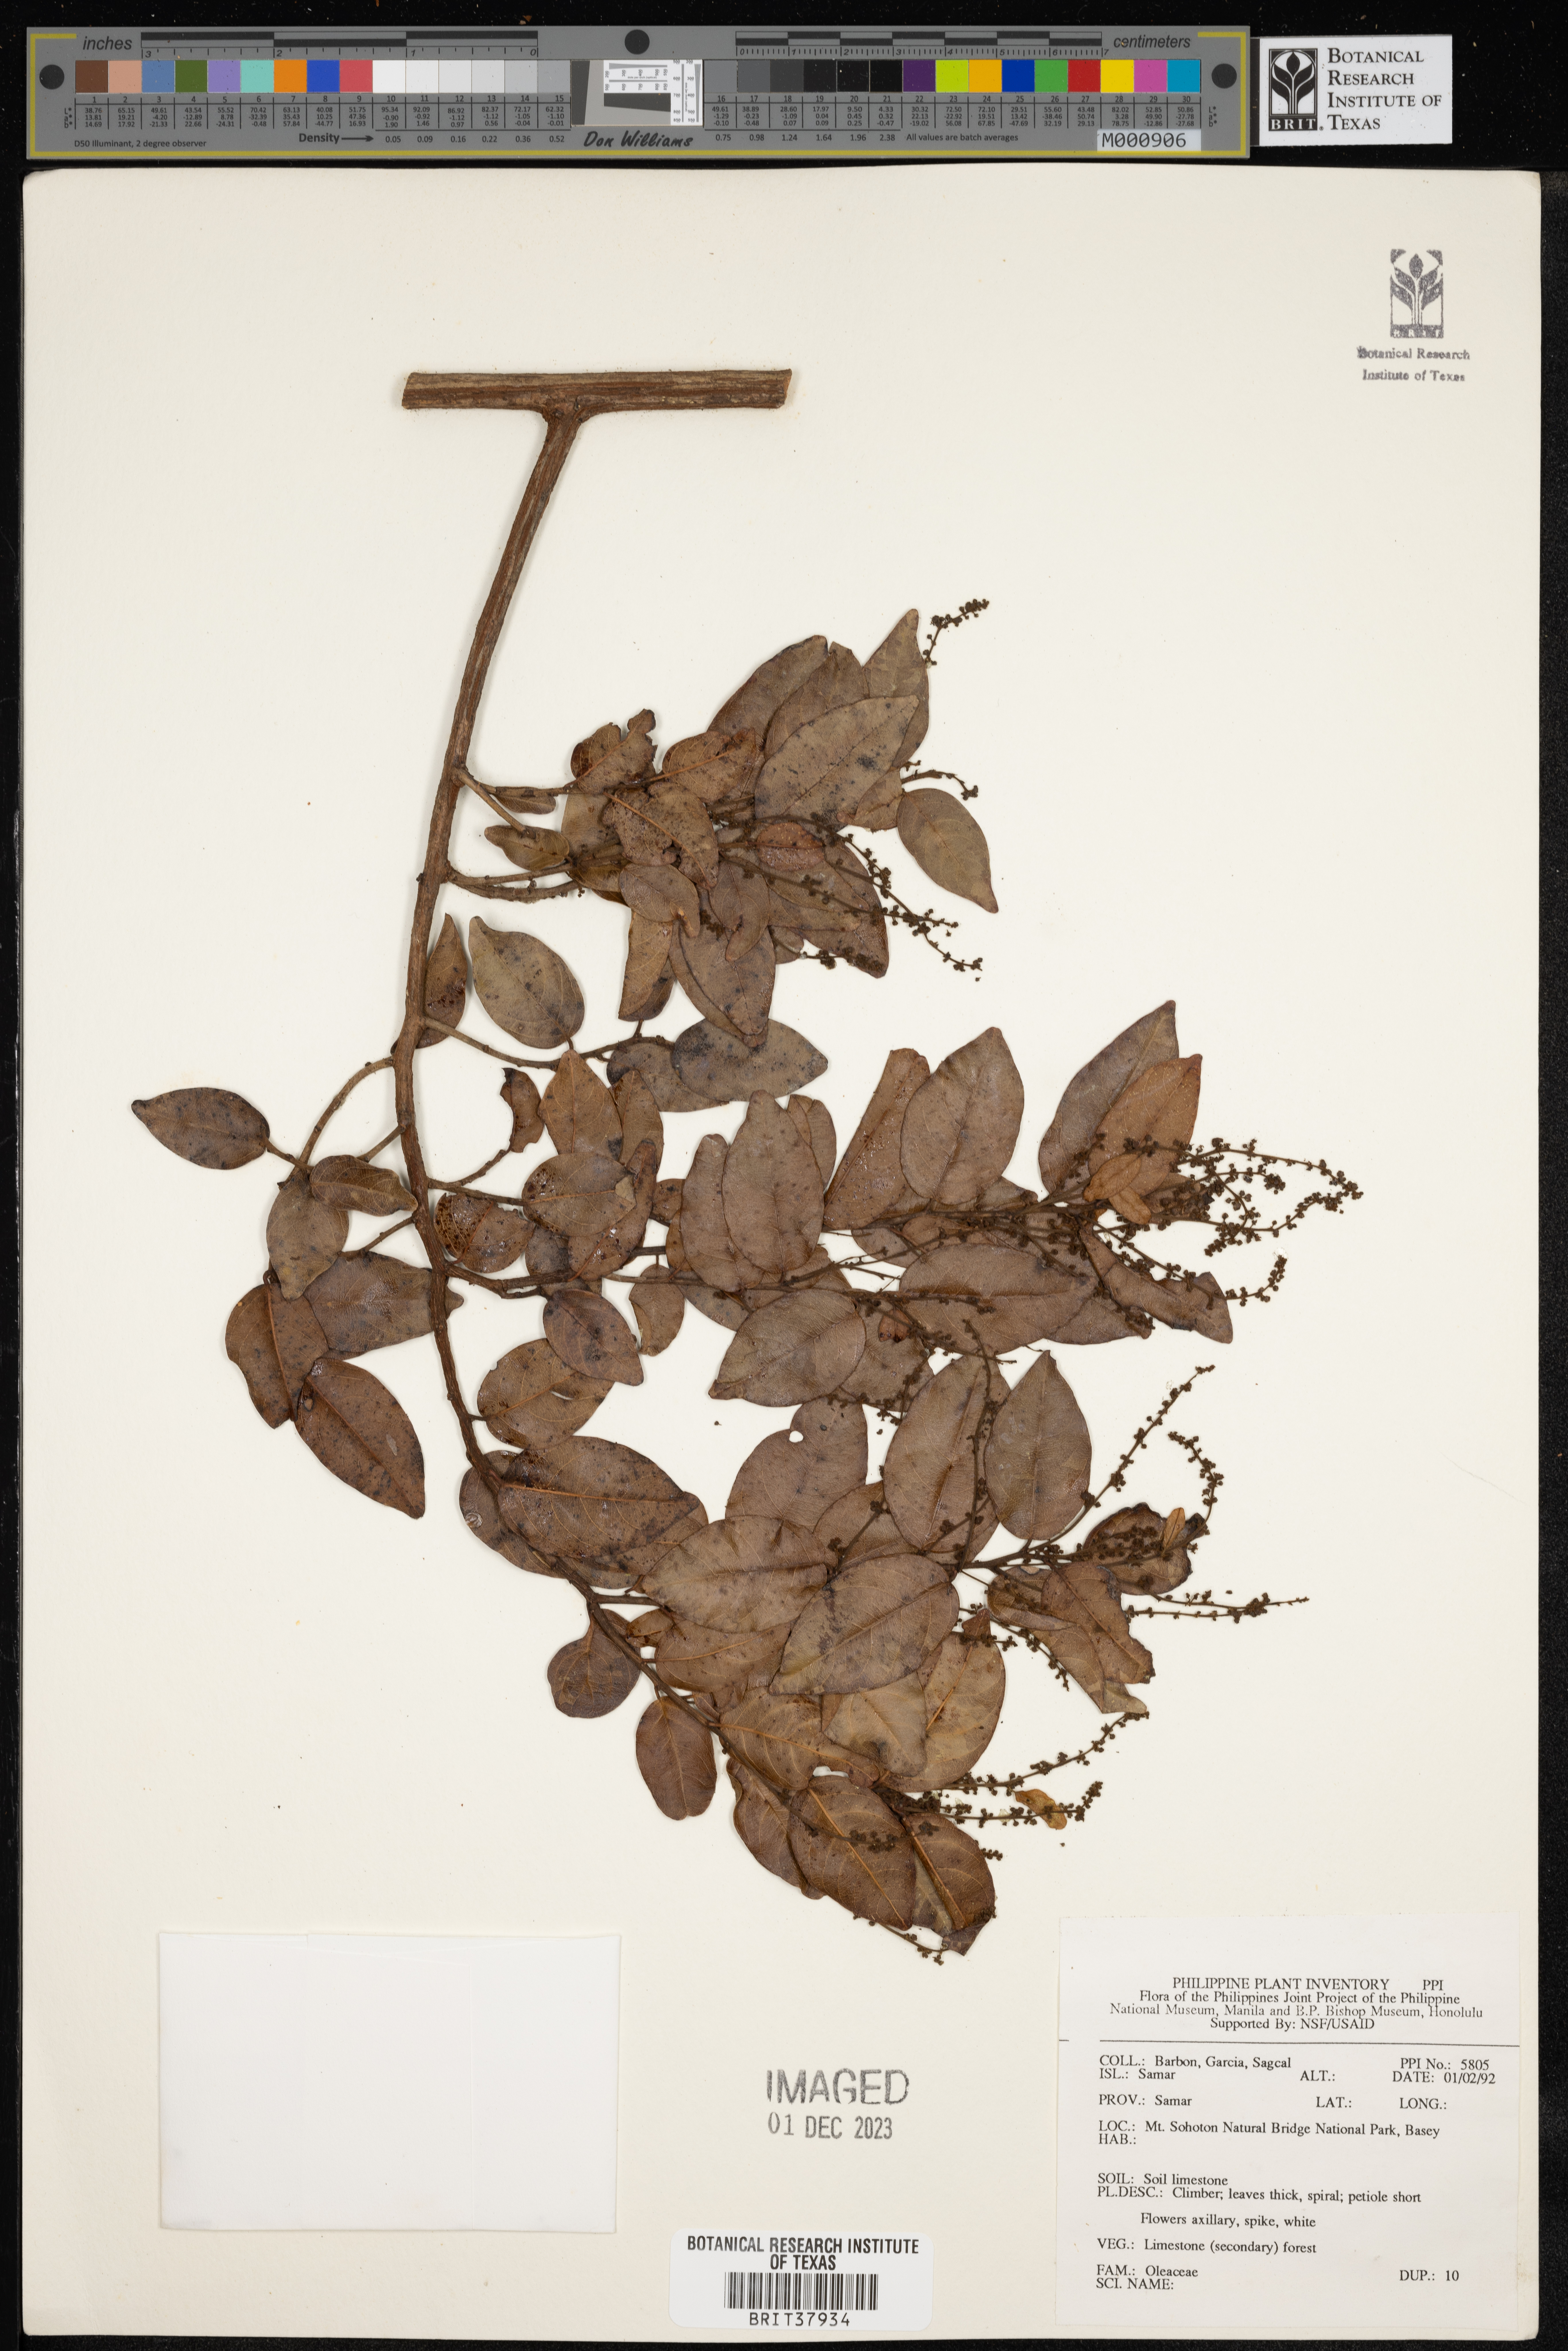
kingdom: Plantae
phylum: Tracheophyta
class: Magnoliopsida
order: Lamiales
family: Oleaceae
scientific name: Oleaceae
